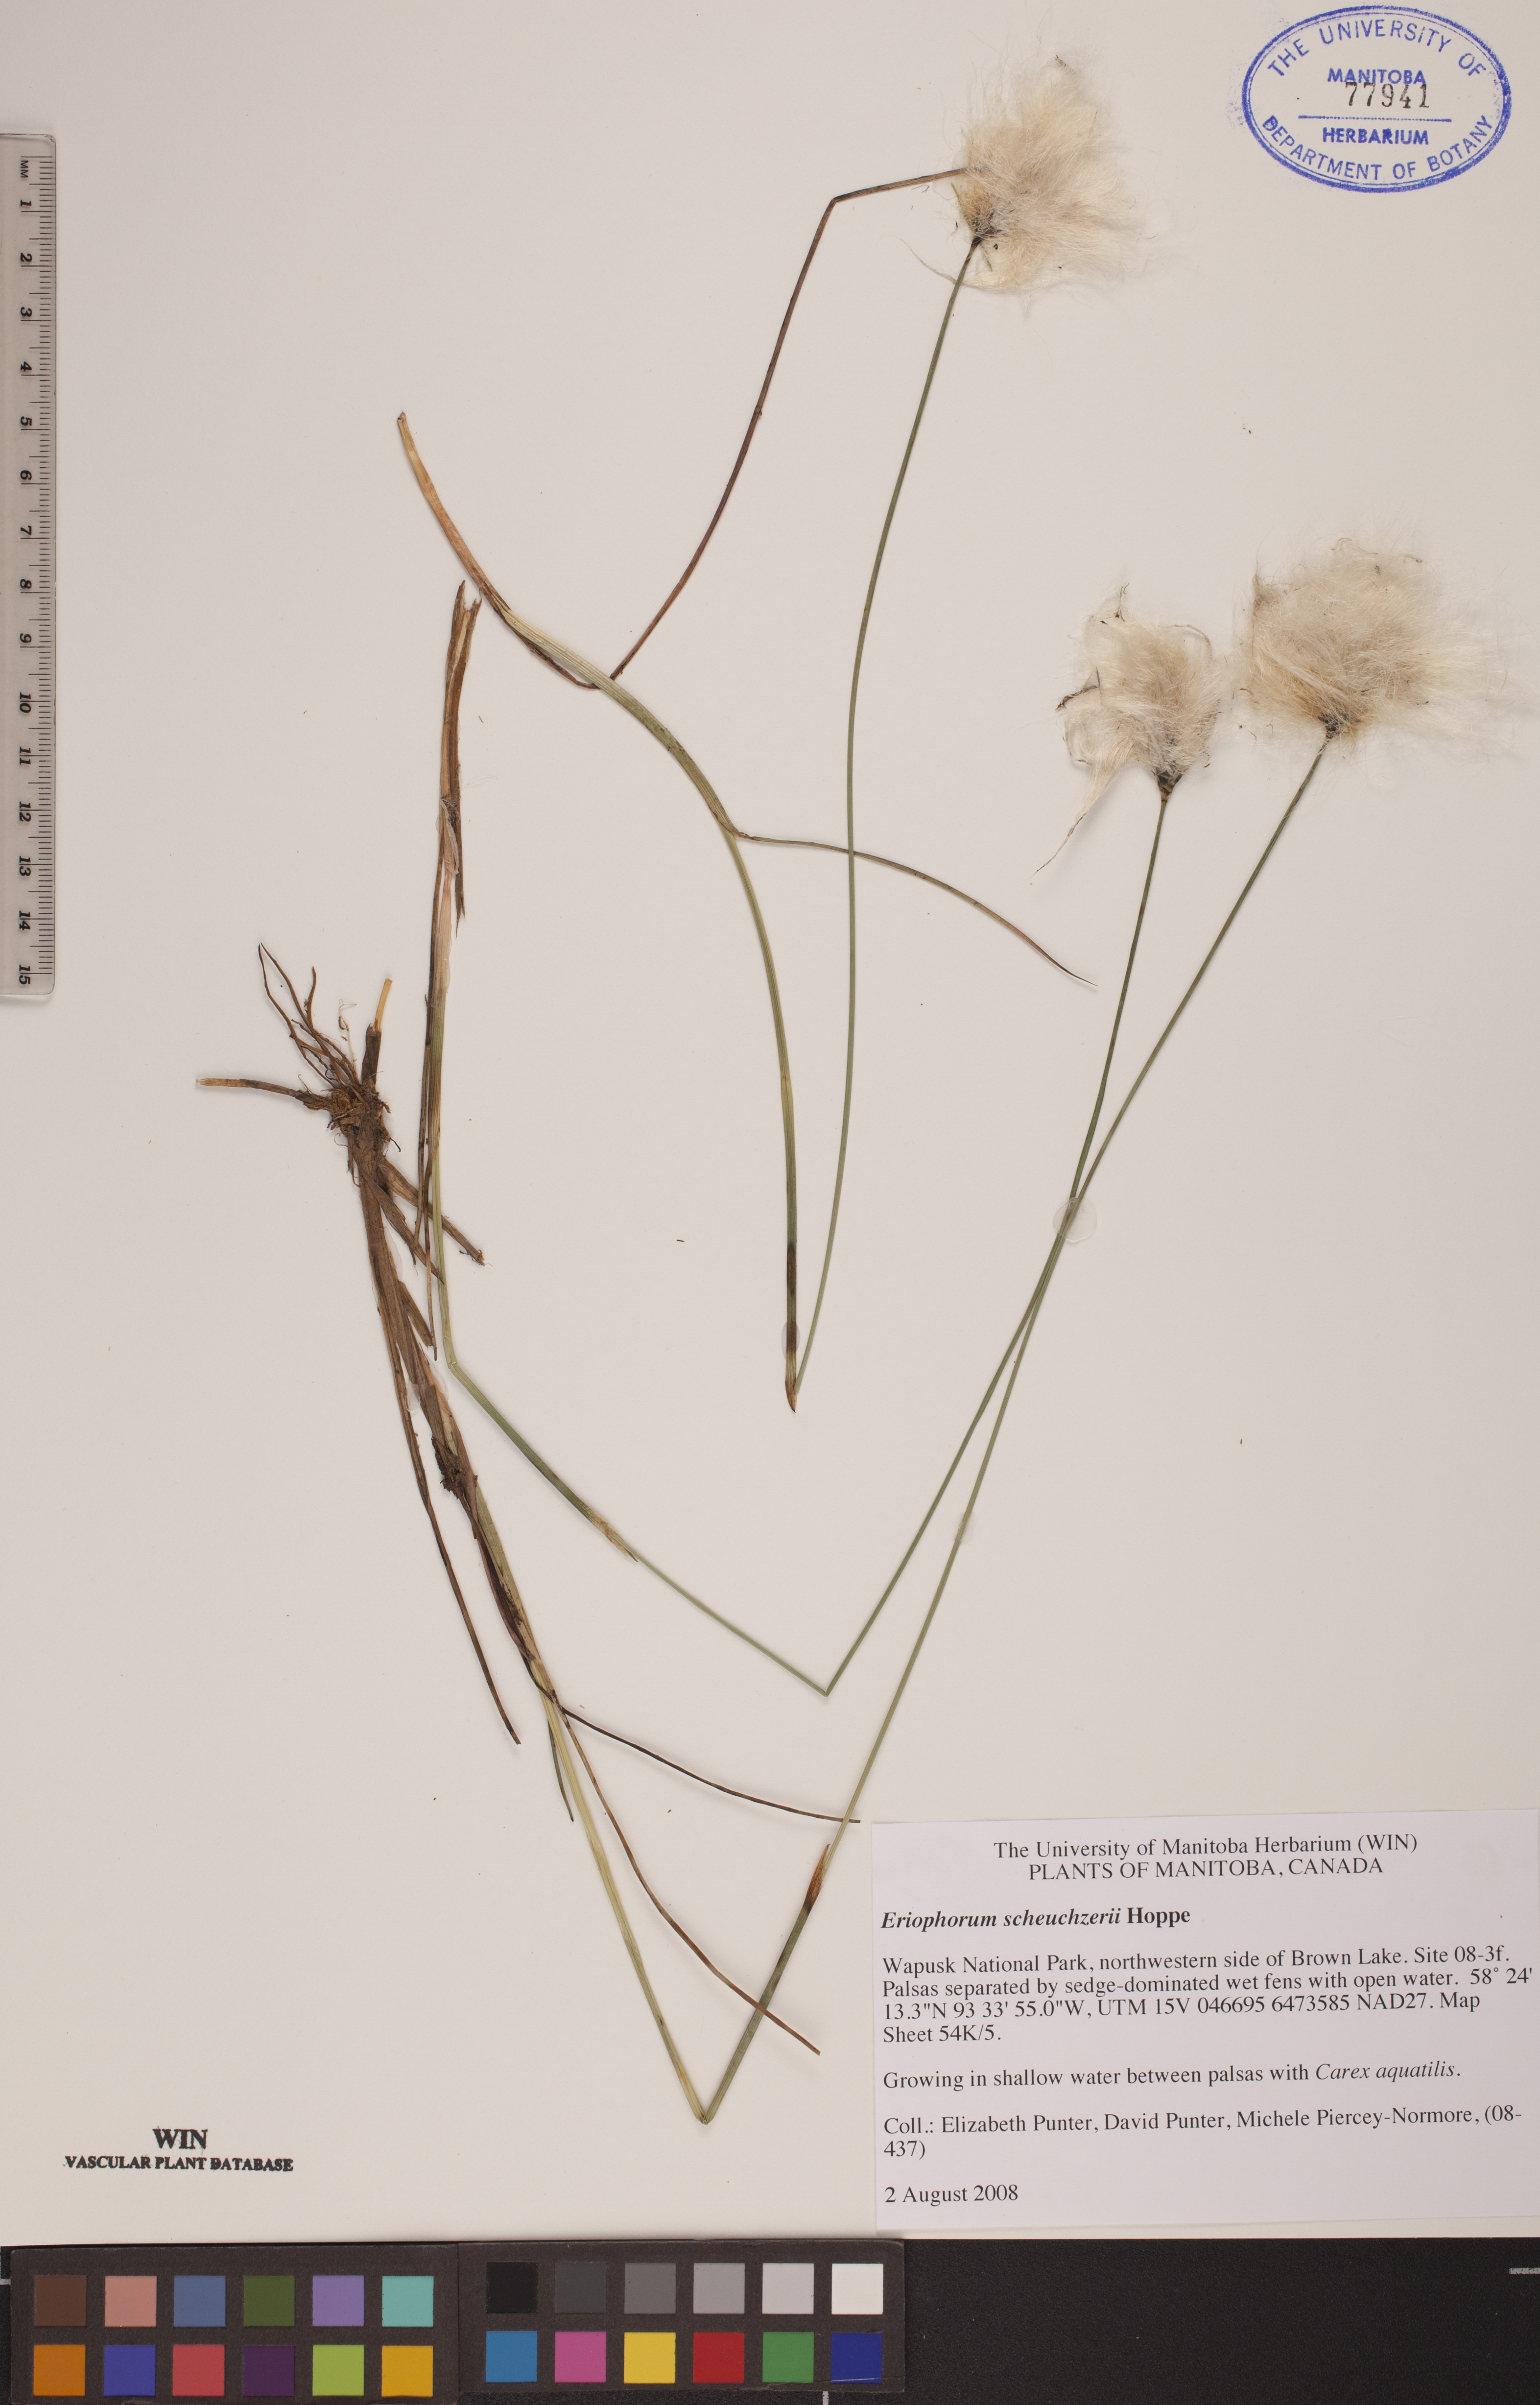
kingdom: Plantae
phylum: Tracheophyta
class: Liliopsida
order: Poales
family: Cyperaceae
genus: Eriophorum
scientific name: Eriophorum scheuchzeri
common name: Scheuchzer's cottongrass
